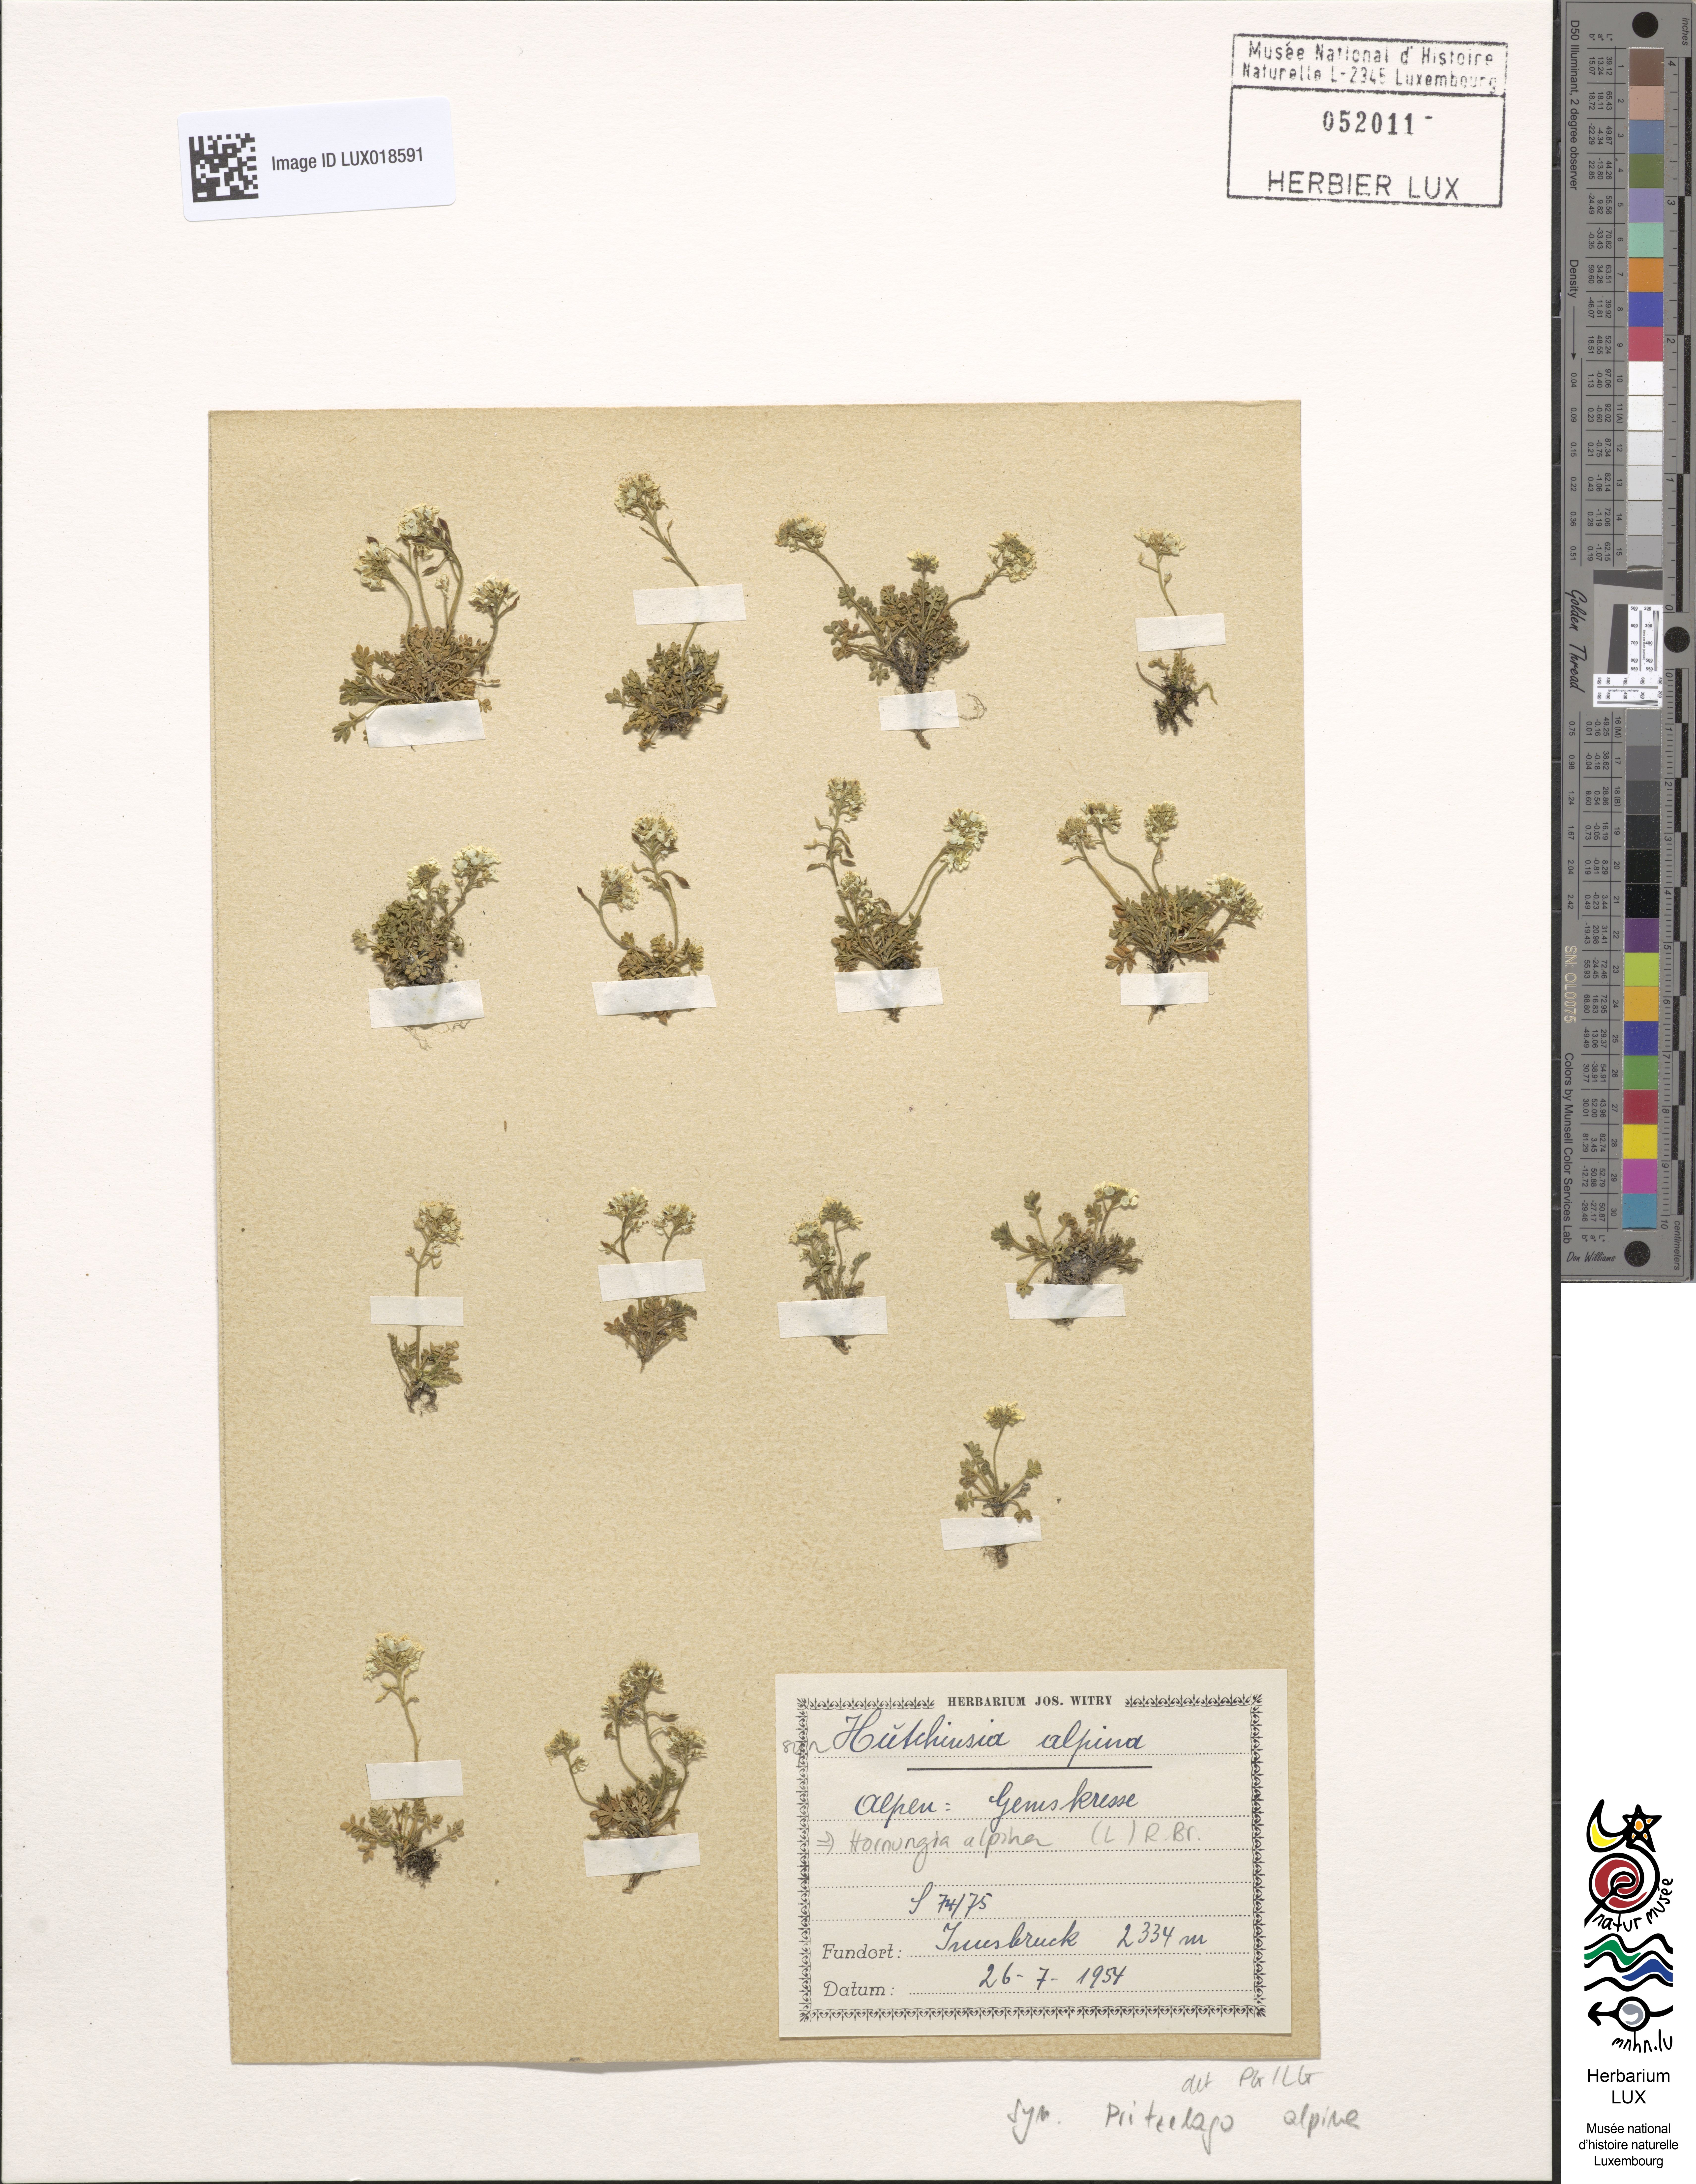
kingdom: Plantae
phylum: Tracheophyta
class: Magnoliopsida
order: Brassicales
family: Brassicaceae
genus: Hornungia
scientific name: Hornungia alpina
